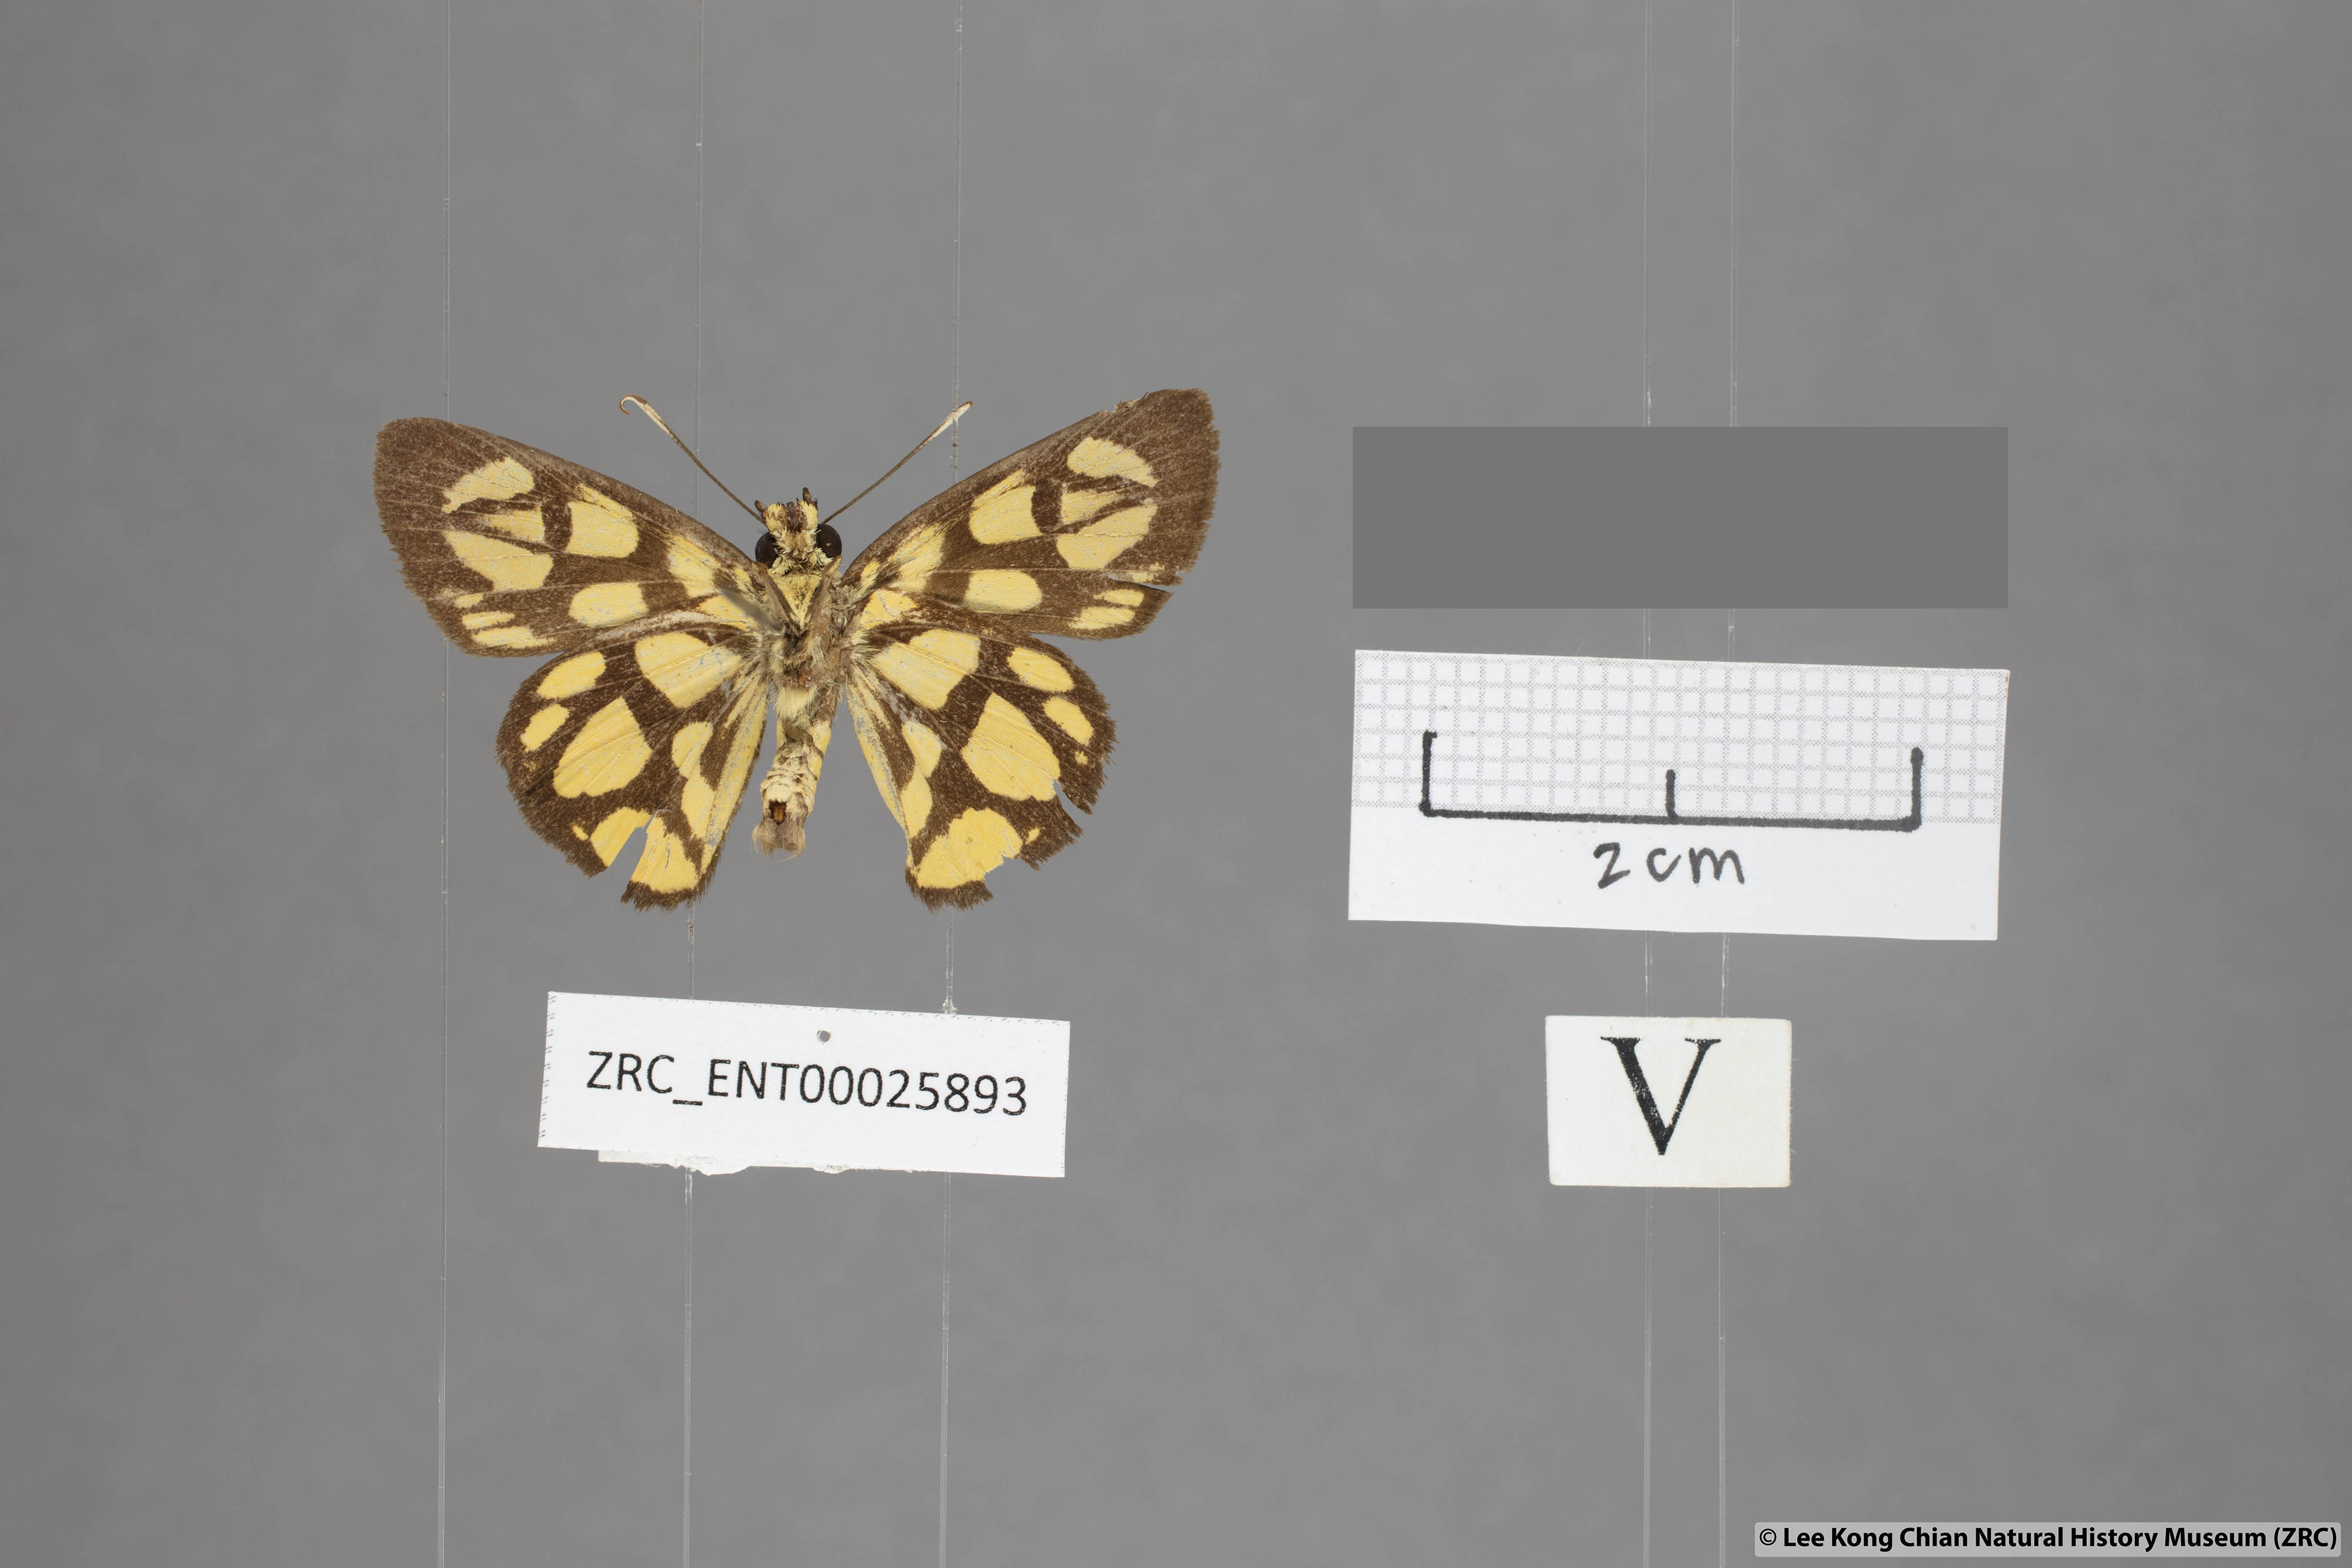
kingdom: Animalia
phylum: Arthropoda
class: Insecta
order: Lepidoptera
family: Hesperiidae
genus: Odina
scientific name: Odina hieroglyphica
